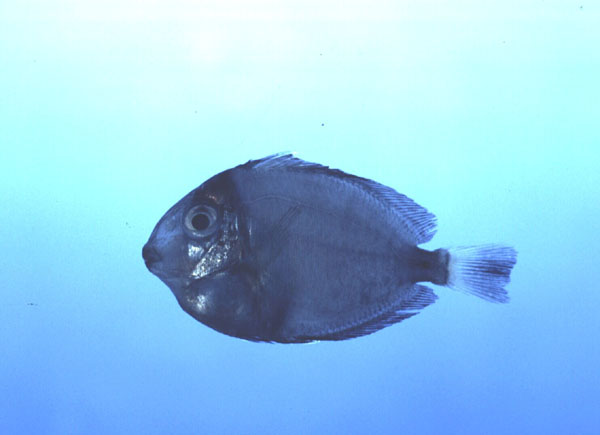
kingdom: Animalia
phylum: Chordata
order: Perciformes
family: Acanthuridae
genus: Acanthurus
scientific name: Acanthurus dussumieri
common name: Dussumier's surgeonfish
